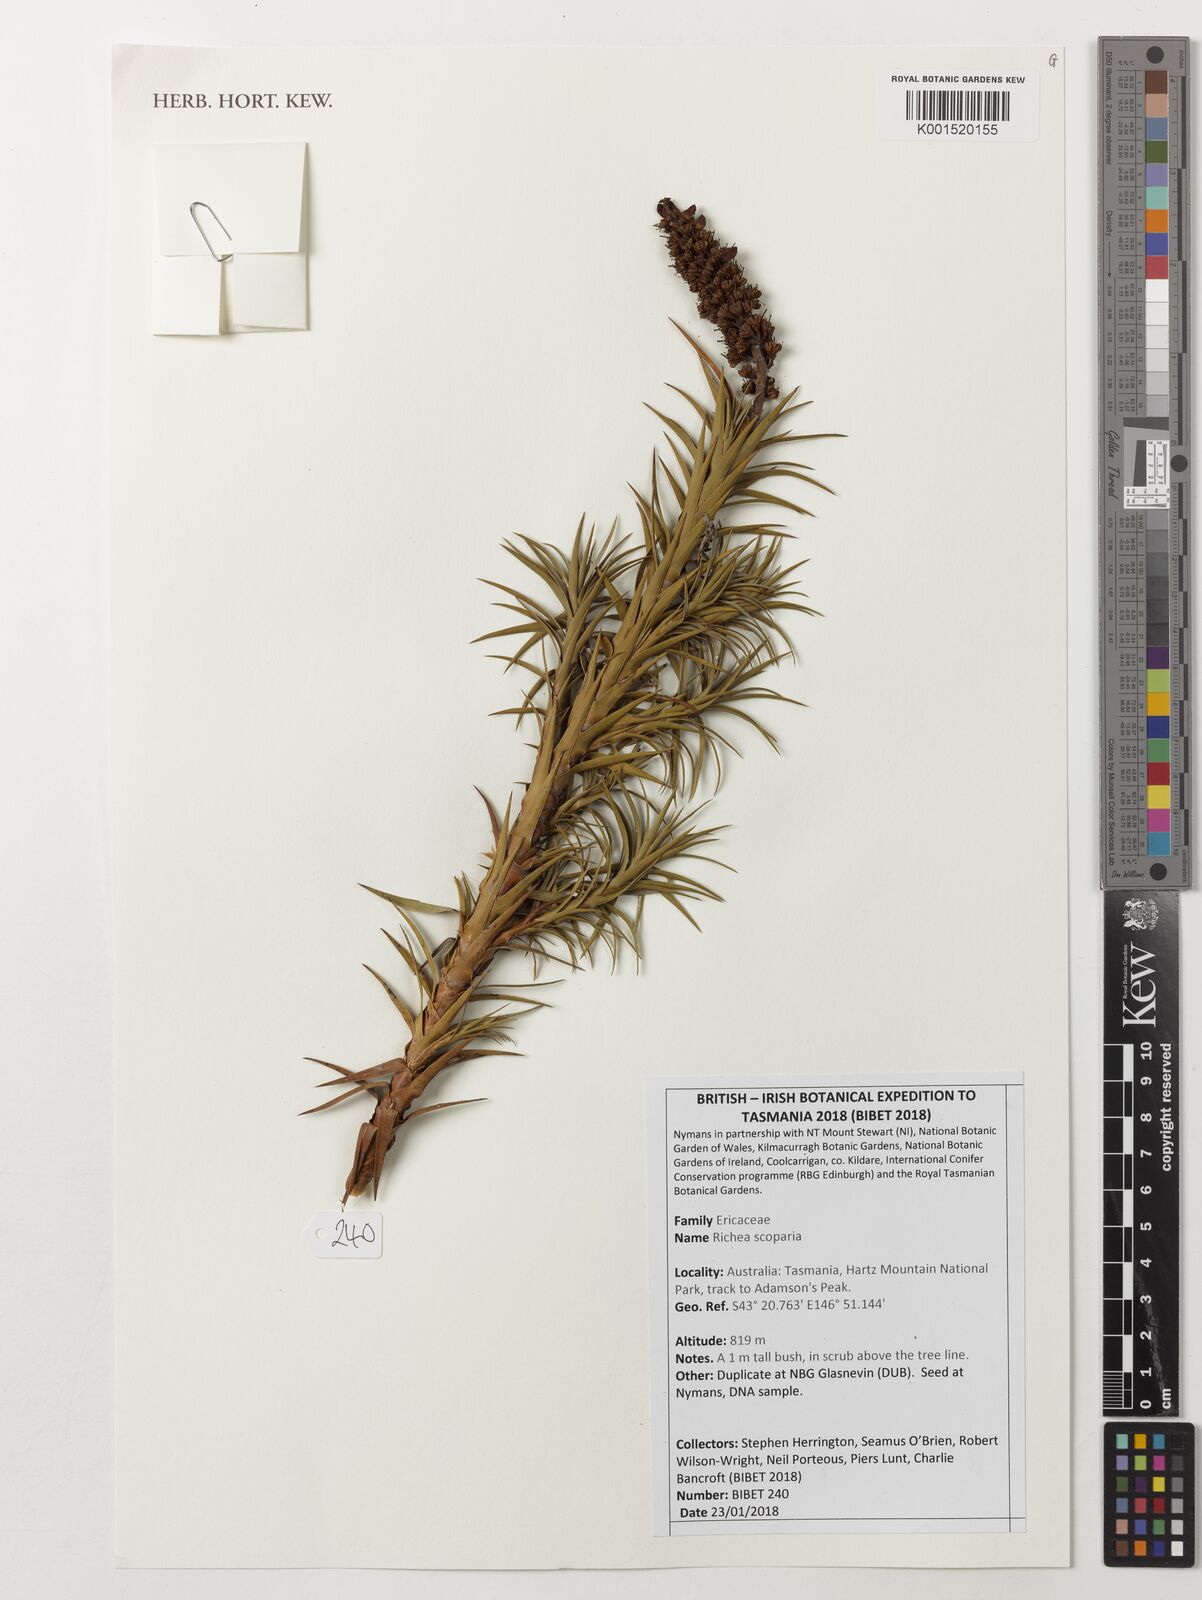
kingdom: Plantae
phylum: Tracheophyta
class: Magnoliopsida
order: Ericales
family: Ericaceae
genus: Dracophyllum
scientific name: Dracophyllum persistentifolium
